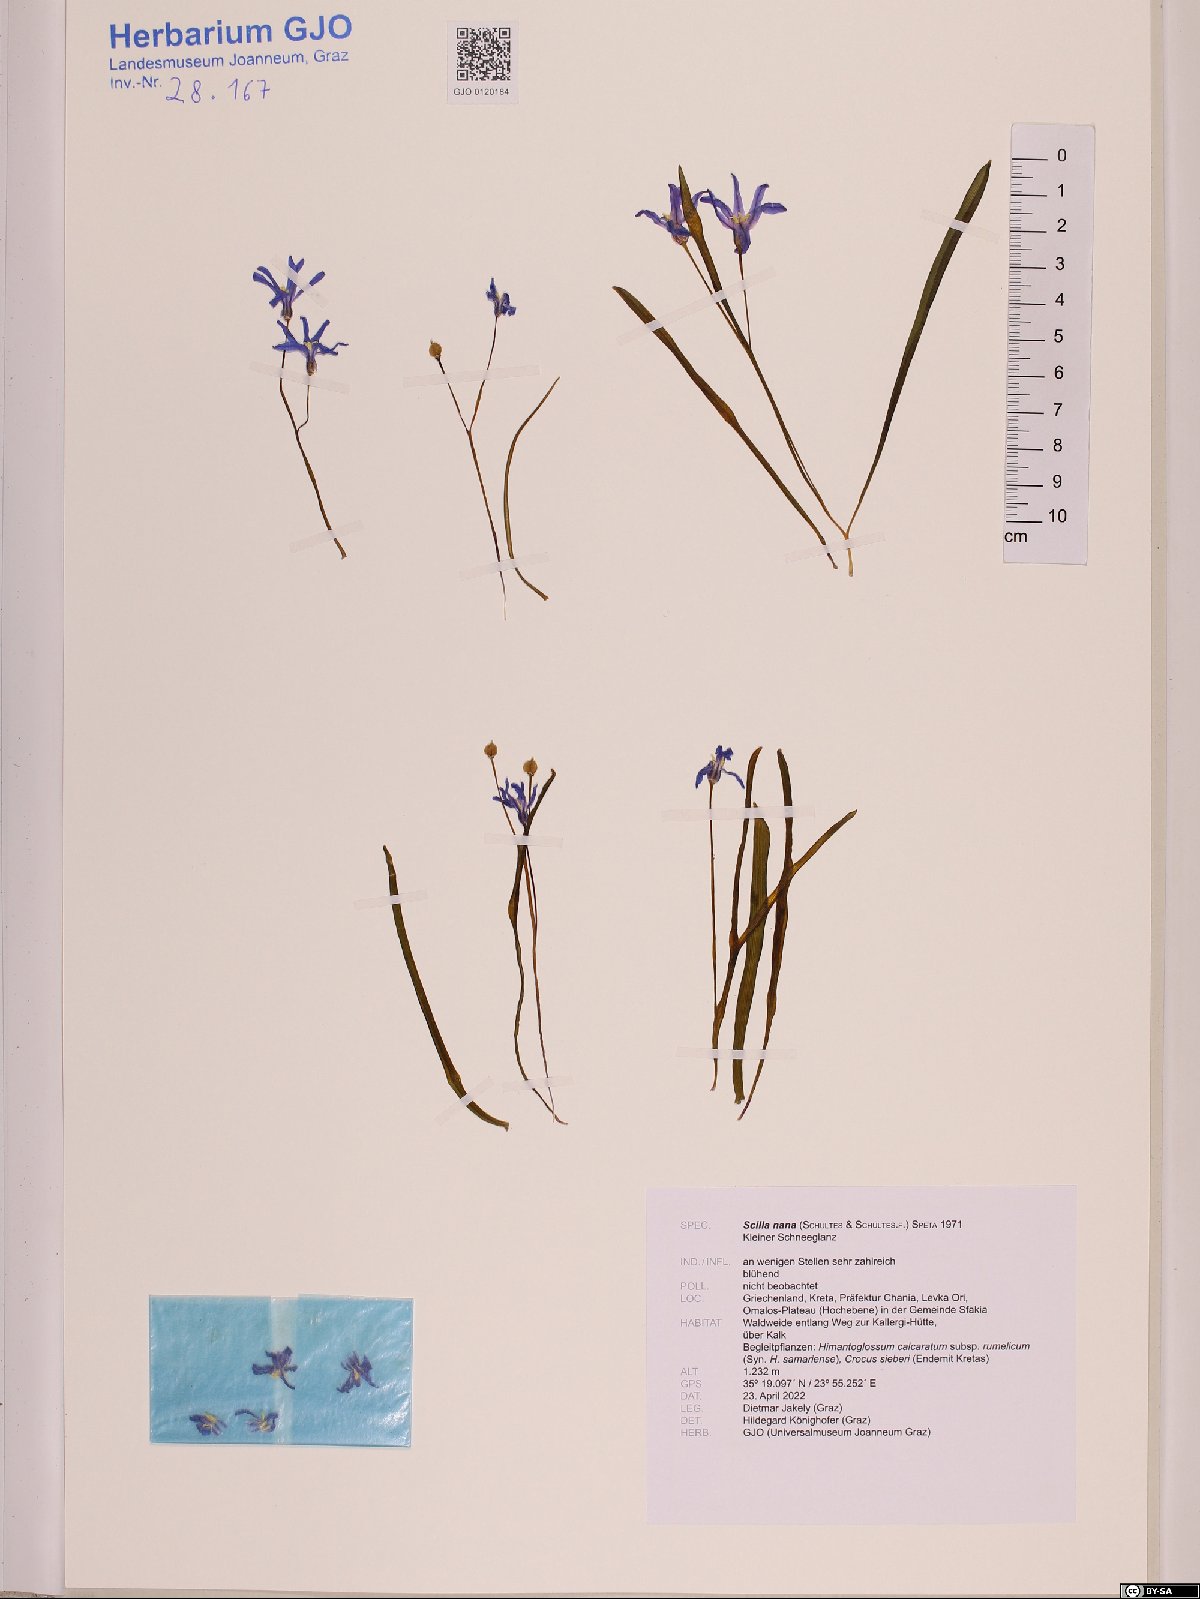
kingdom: Plantae
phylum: Tracheophyta
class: Liliopsida
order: Asparagales
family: Asparagaceae
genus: Scilla
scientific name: Scilla nana
